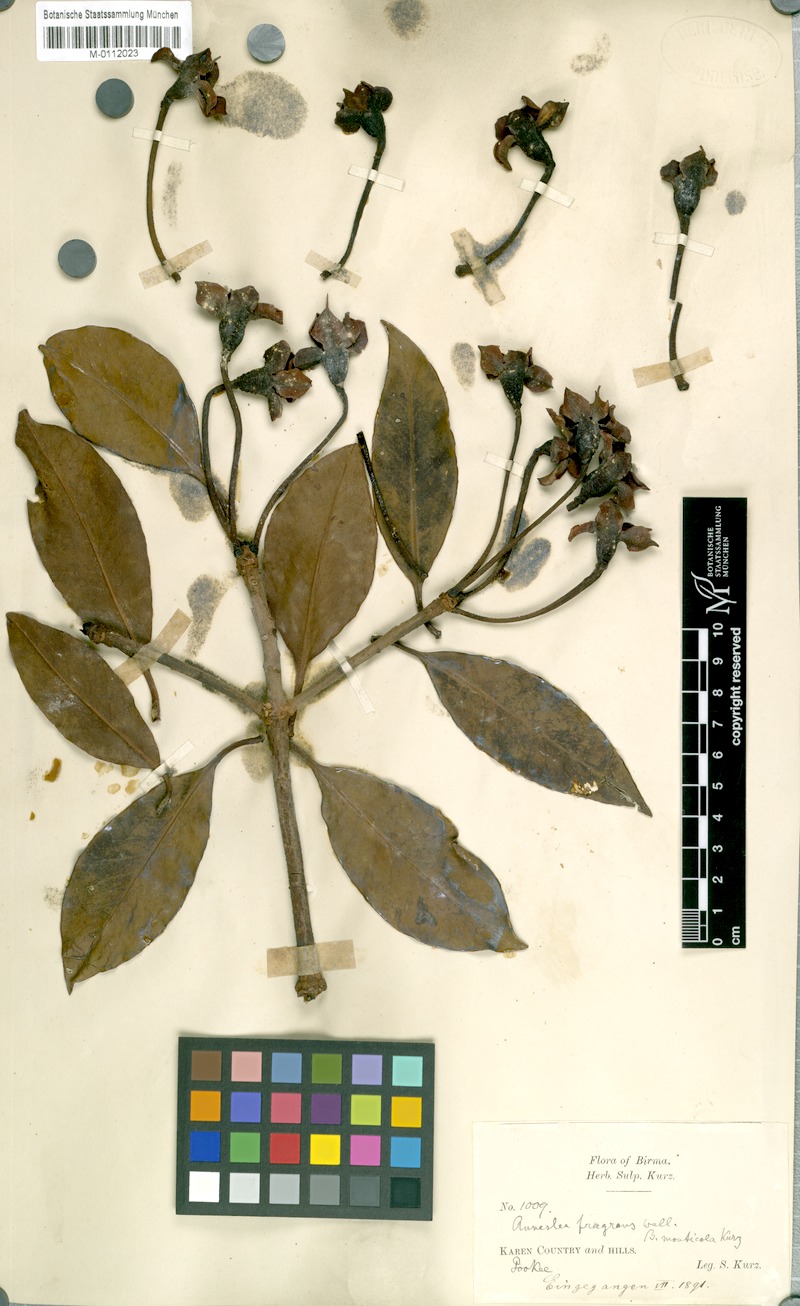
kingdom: Plantae
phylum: Tracheophyta
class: Magnoliopsida
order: Ericales
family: Pentaphylacaceae
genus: Anneslea
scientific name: Anneslea fragrans
